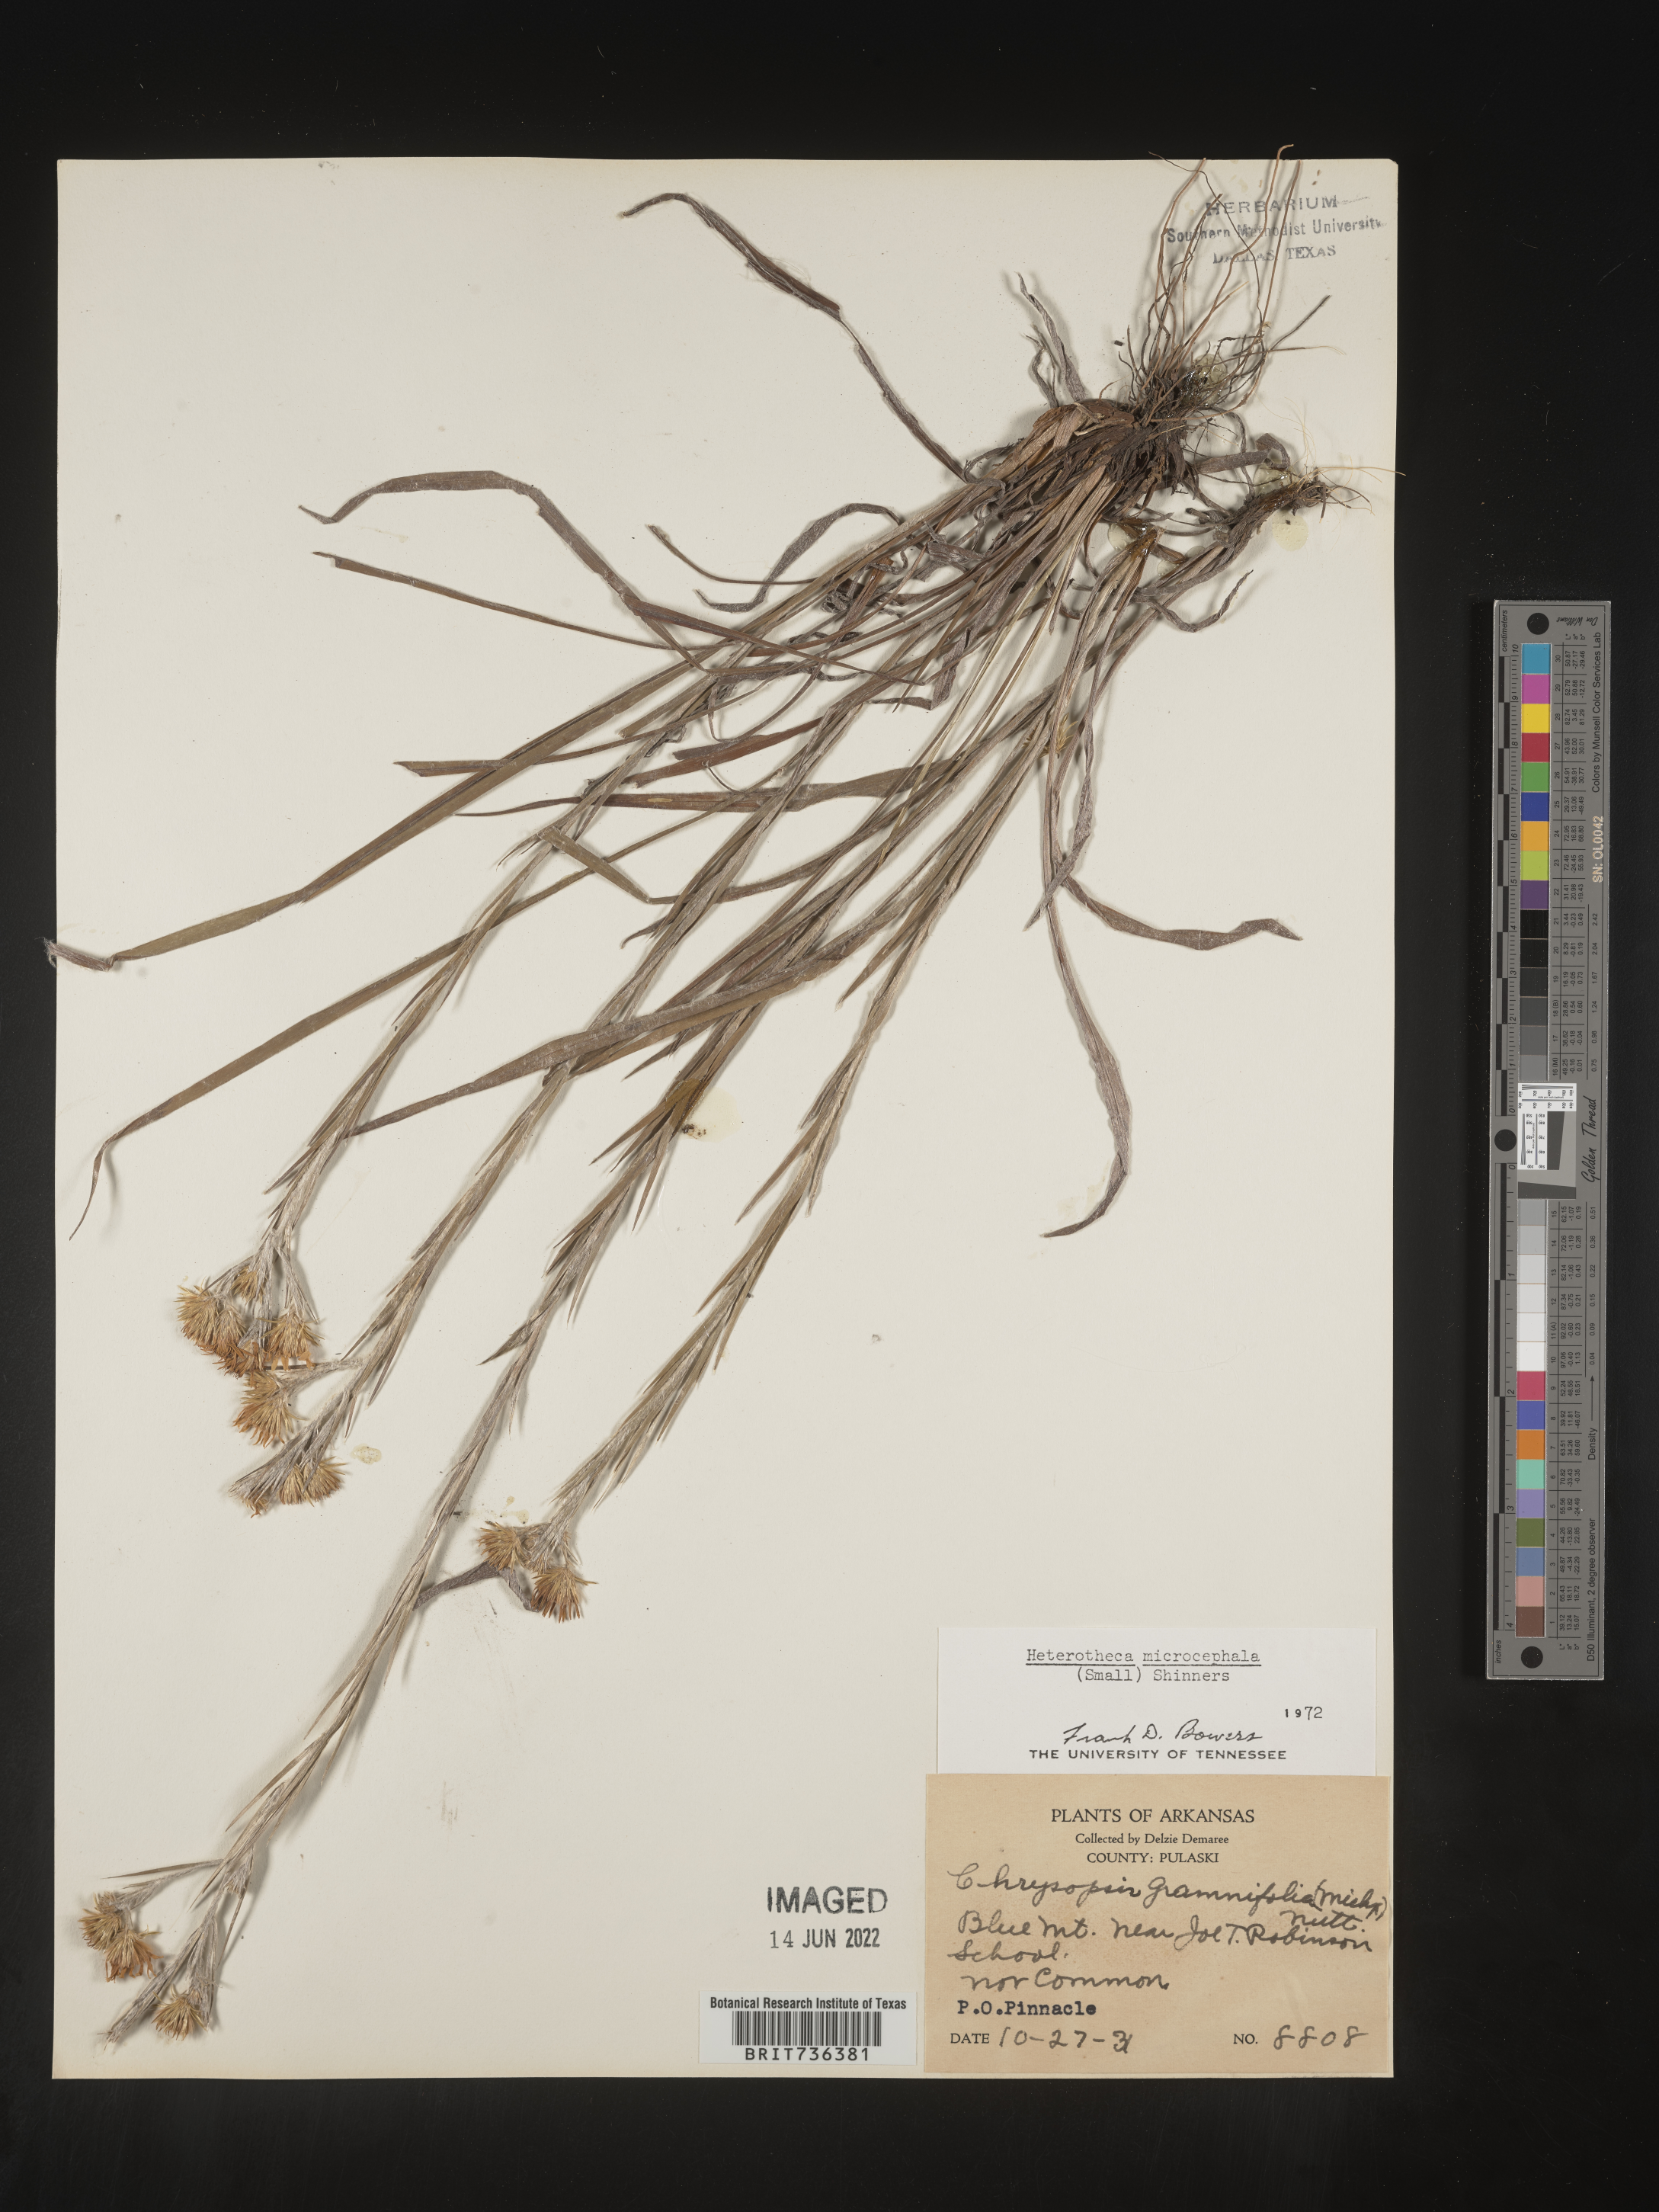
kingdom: Plantae
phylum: Tracheophyta
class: Magnoliopsida
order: Asterales
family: Asteraceae
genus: Pityopsis
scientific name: Pityopsis tenuifolia
